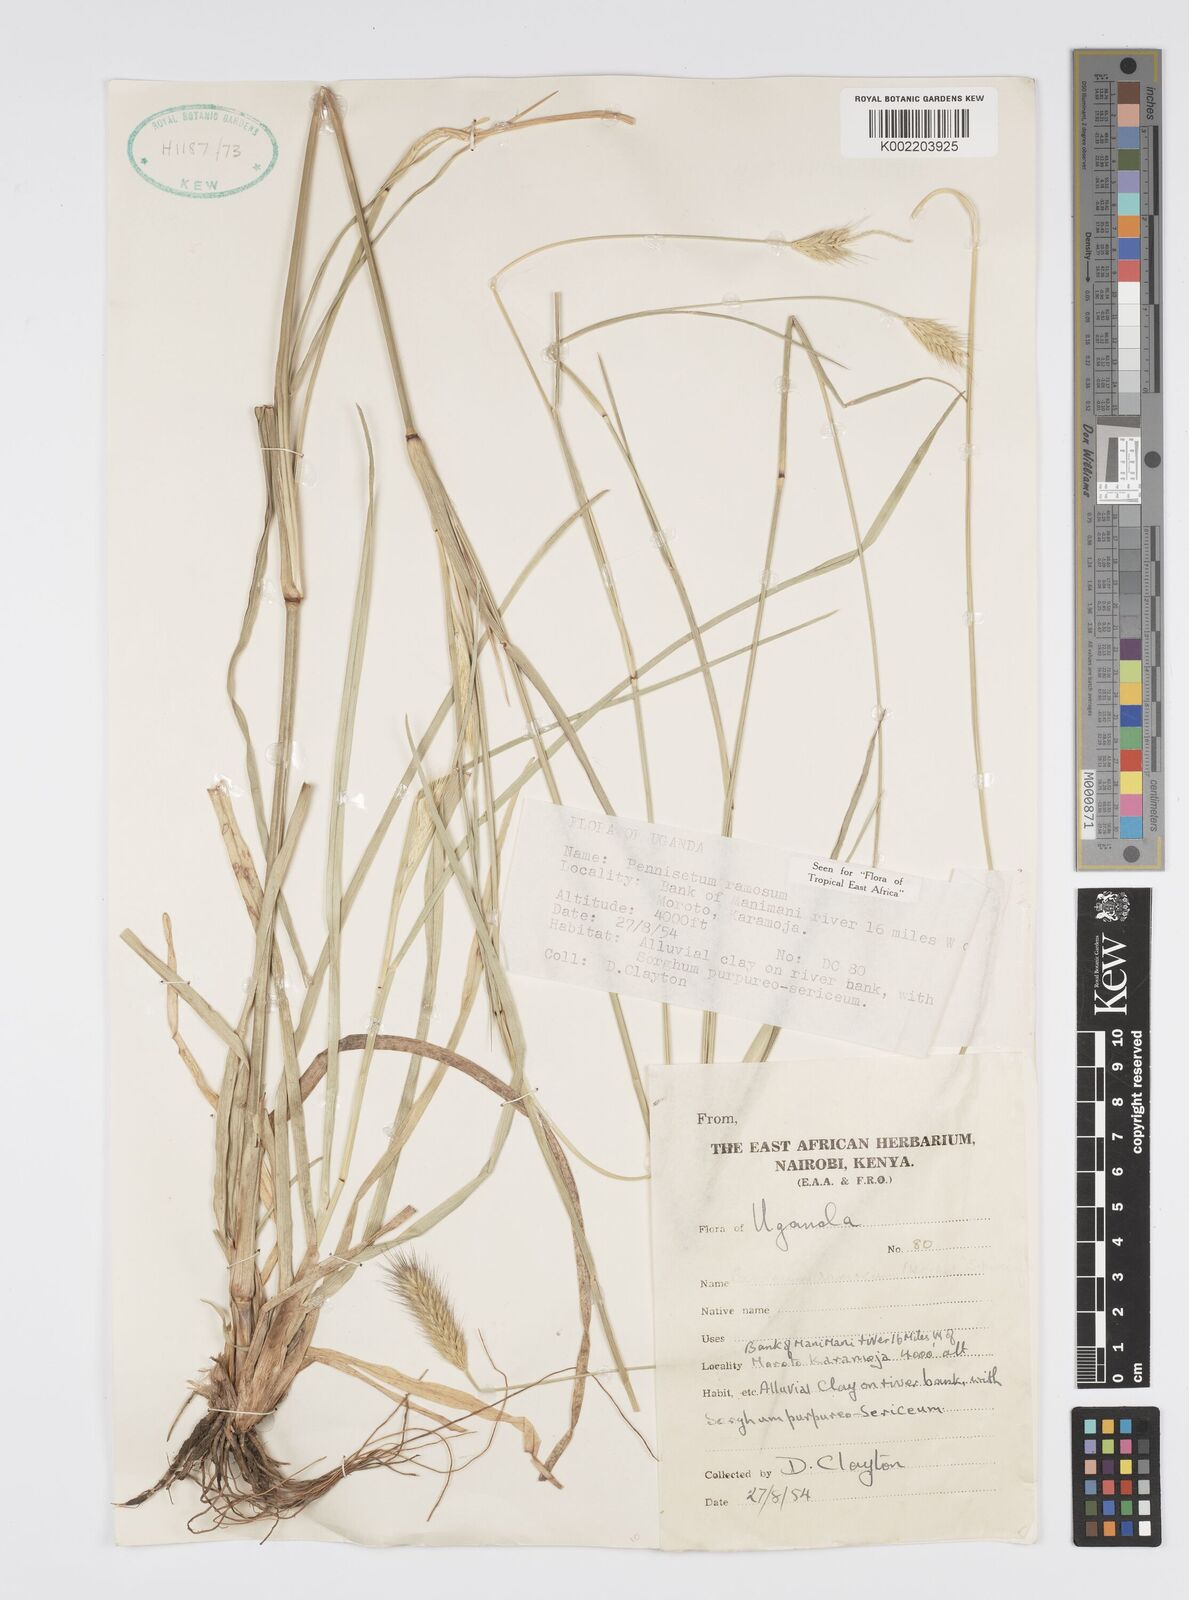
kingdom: Plantae
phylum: Tracheophyta
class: Liliopsida
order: Poales
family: Poaceae
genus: Cenchrus
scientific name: Cenchrus ramosus
